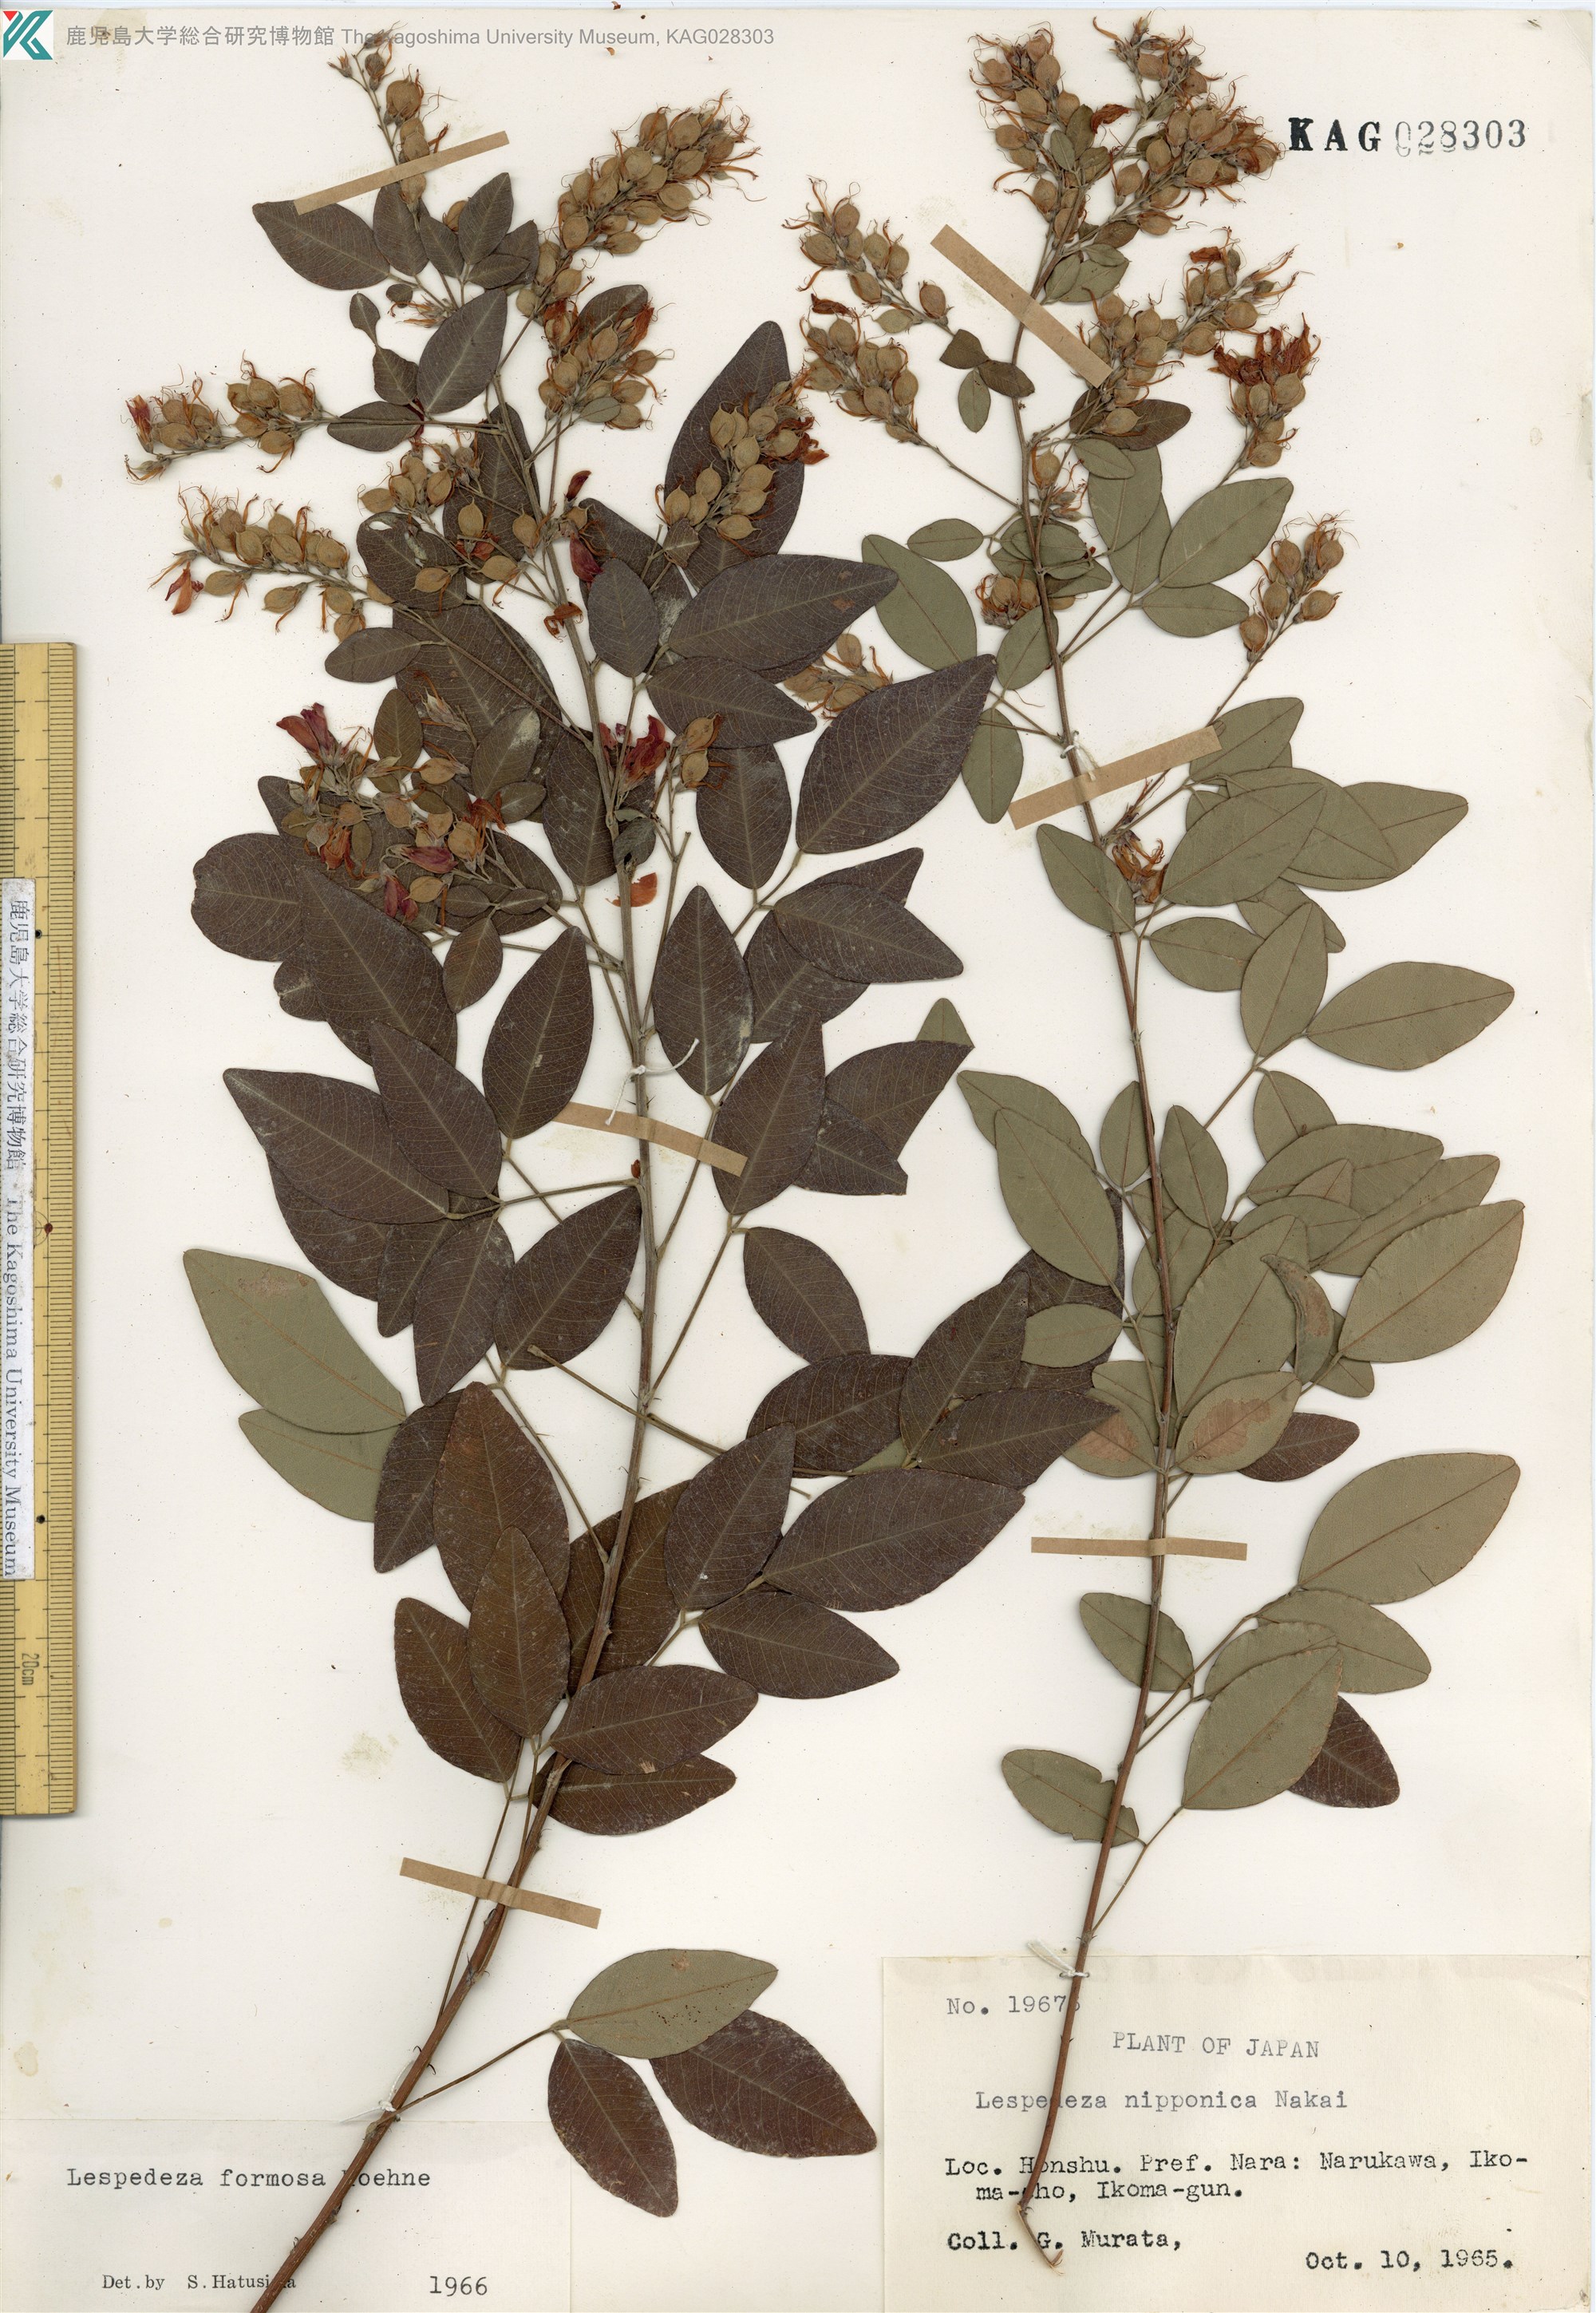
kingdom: Plantae
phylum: Tracheophyta
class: Magnoliopsida
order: Fabales
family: Fabaceae
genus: Lespedeza
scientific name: Lespedeza thunbergii
